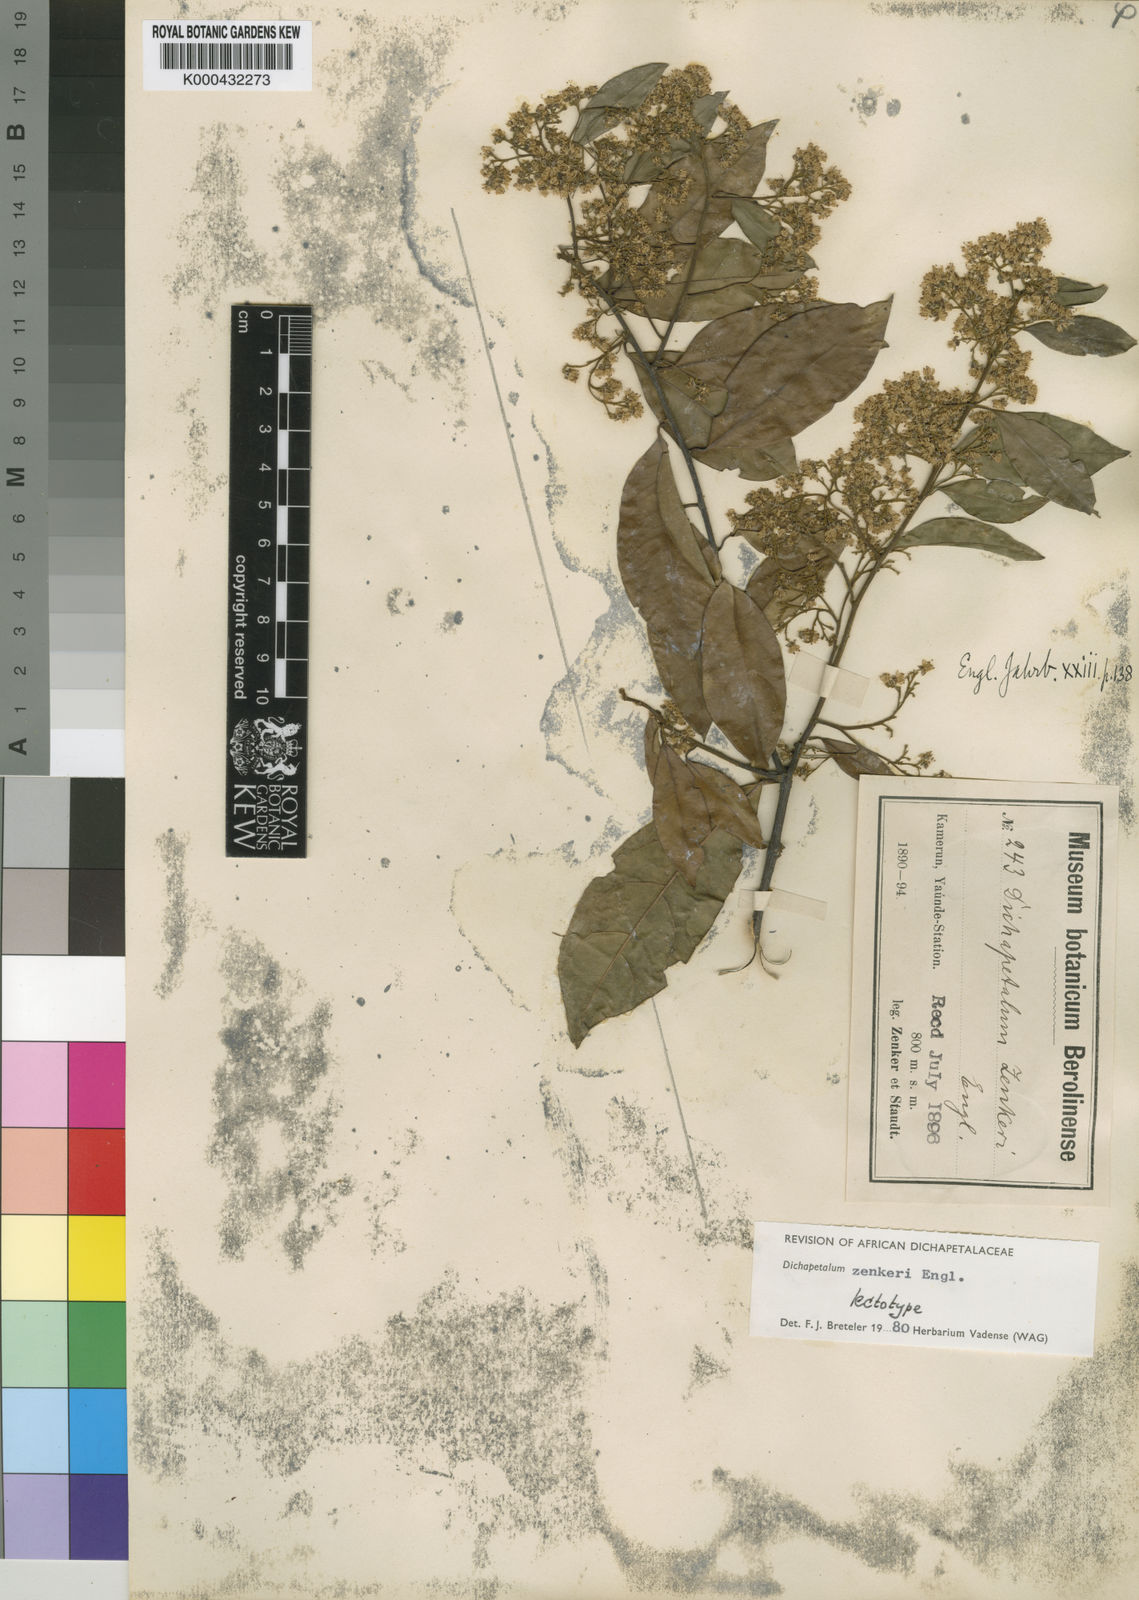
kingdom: Plantae
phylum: Tracheophyta
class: Magnoliopsida
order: Malpighiales
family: Dichapetalaceae
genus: Dichapetalum
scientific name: Dichapetalum zenkeri
